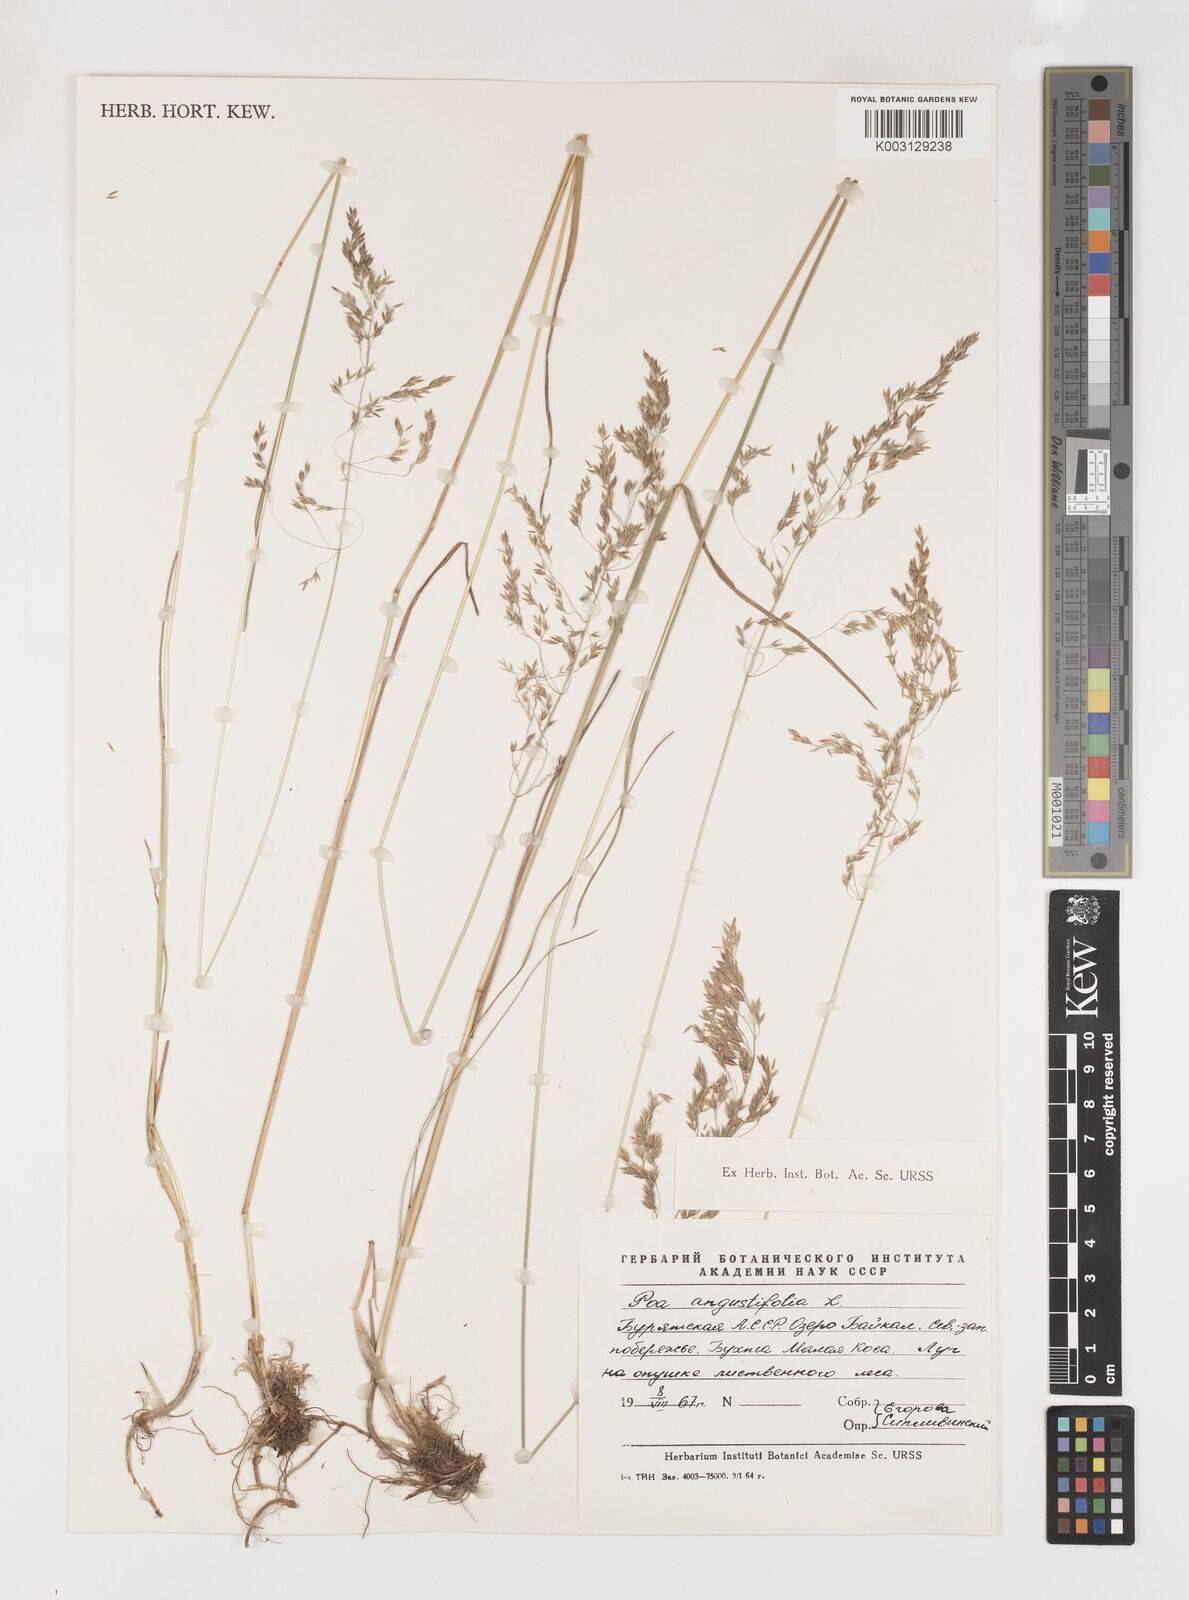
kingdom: Plantae
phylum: Tracheophyta
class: Liliopsida
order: Poales
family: Poaceae
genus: Poa
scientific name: Poa angustifolia
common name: Narrow-leaved meadow-grass
